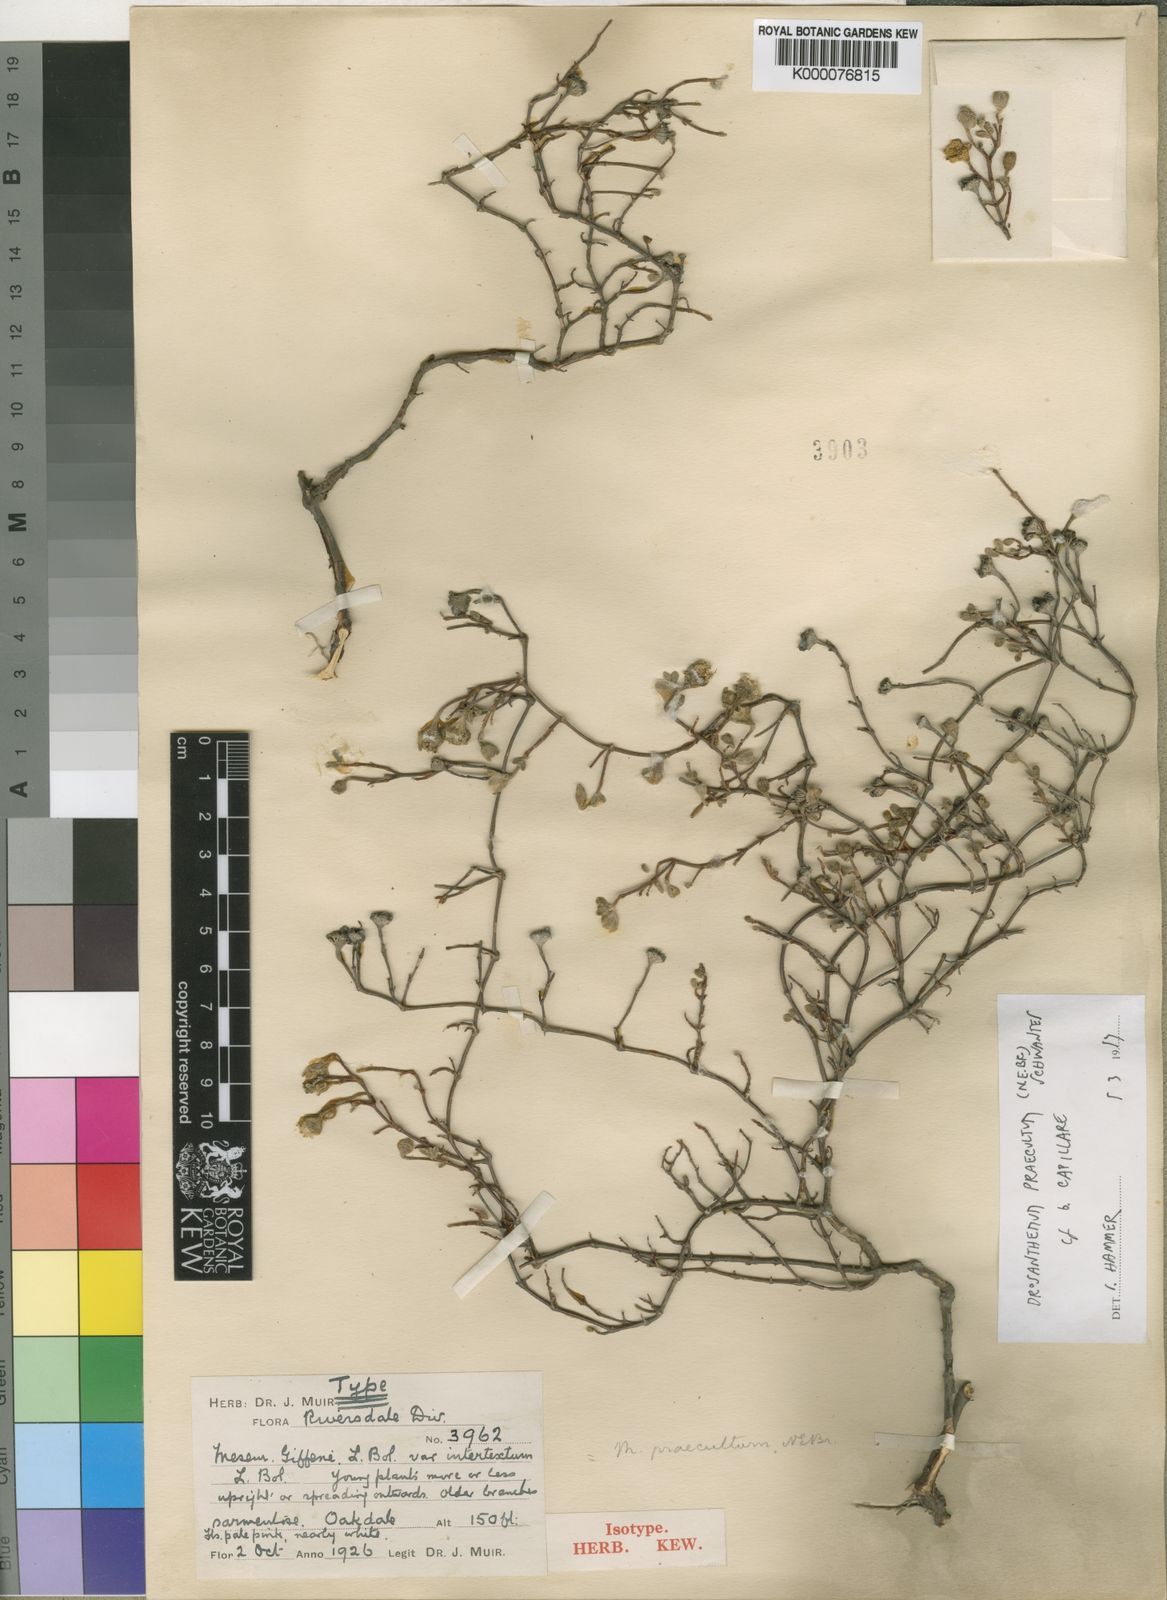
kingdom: Plantae
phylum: Tracheophyta
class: Magnoliopsida
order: Caryophyllales
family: Aizoaceae
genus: Drosanthemum
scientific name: Drosanthemum praecultum
